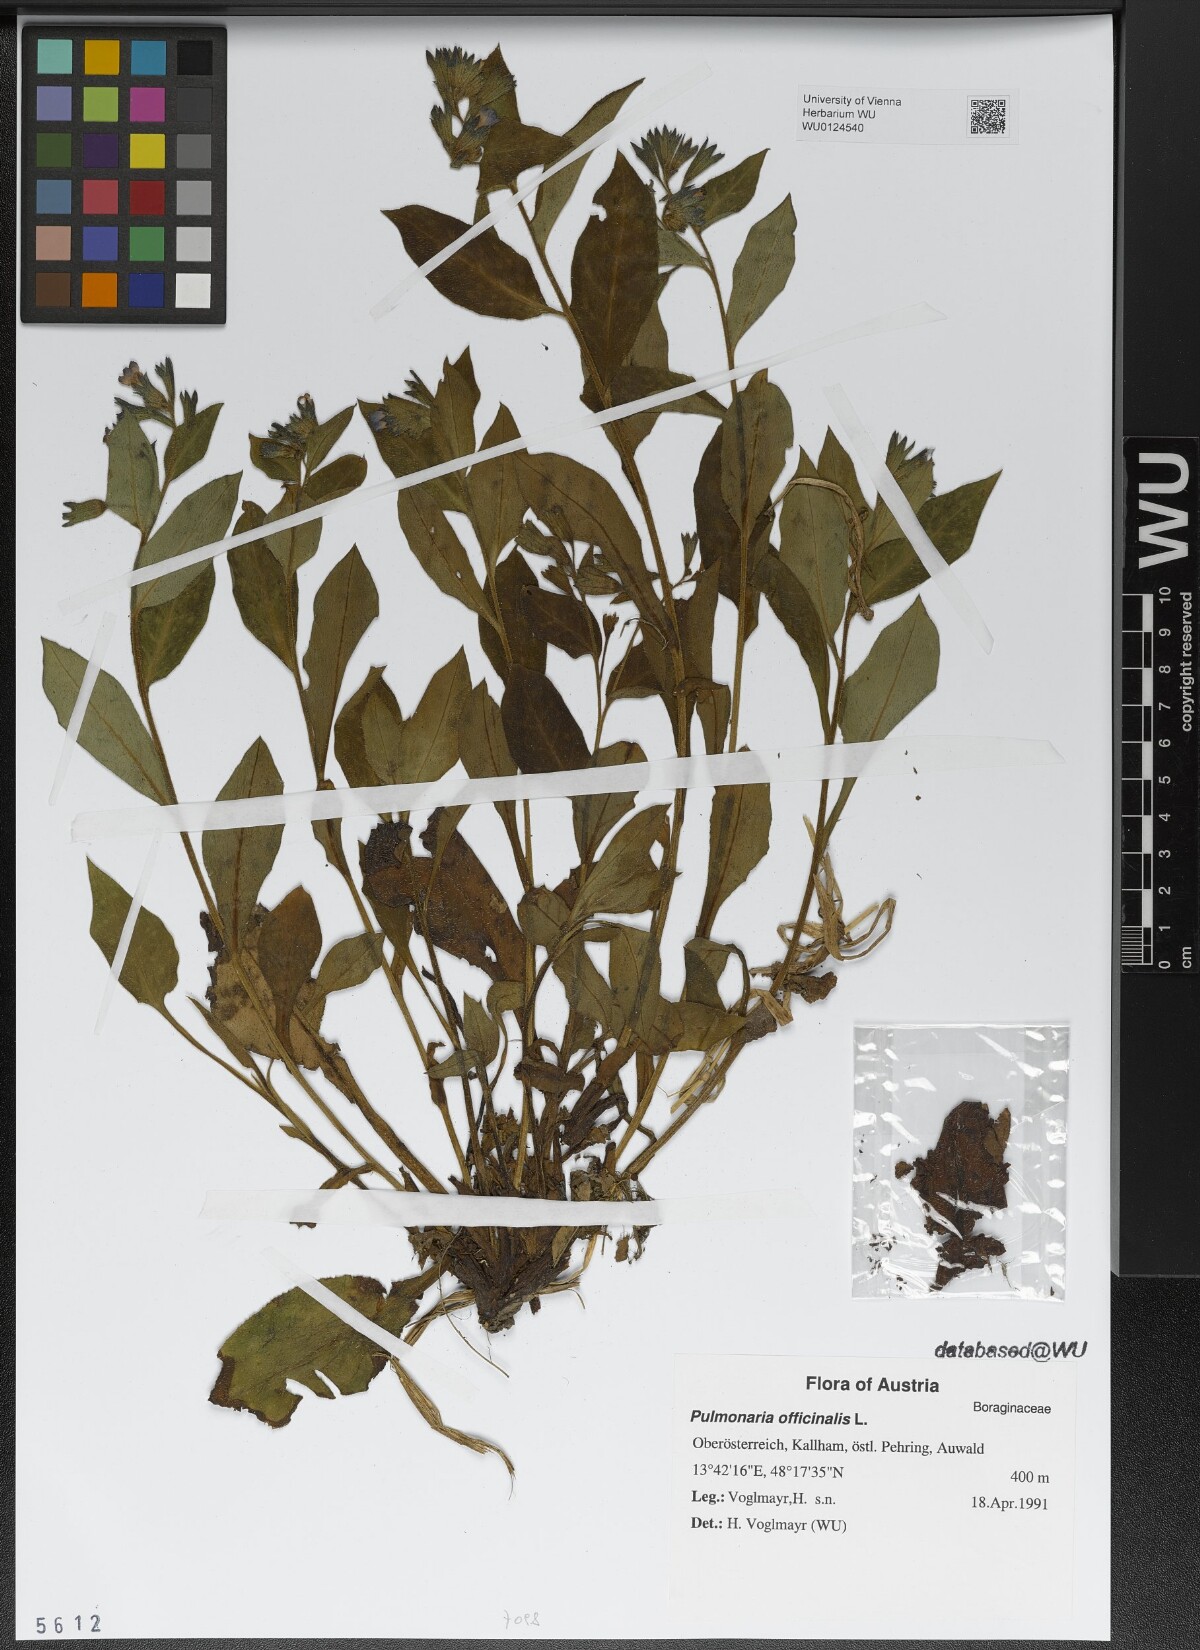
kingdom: Plantae
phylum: Tracheophyta
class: Magnoliopsida
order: Boraginales
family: Boraginaceae
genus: Pulmonaria
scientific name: Pulmonaria officinalis
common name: Lungwort
